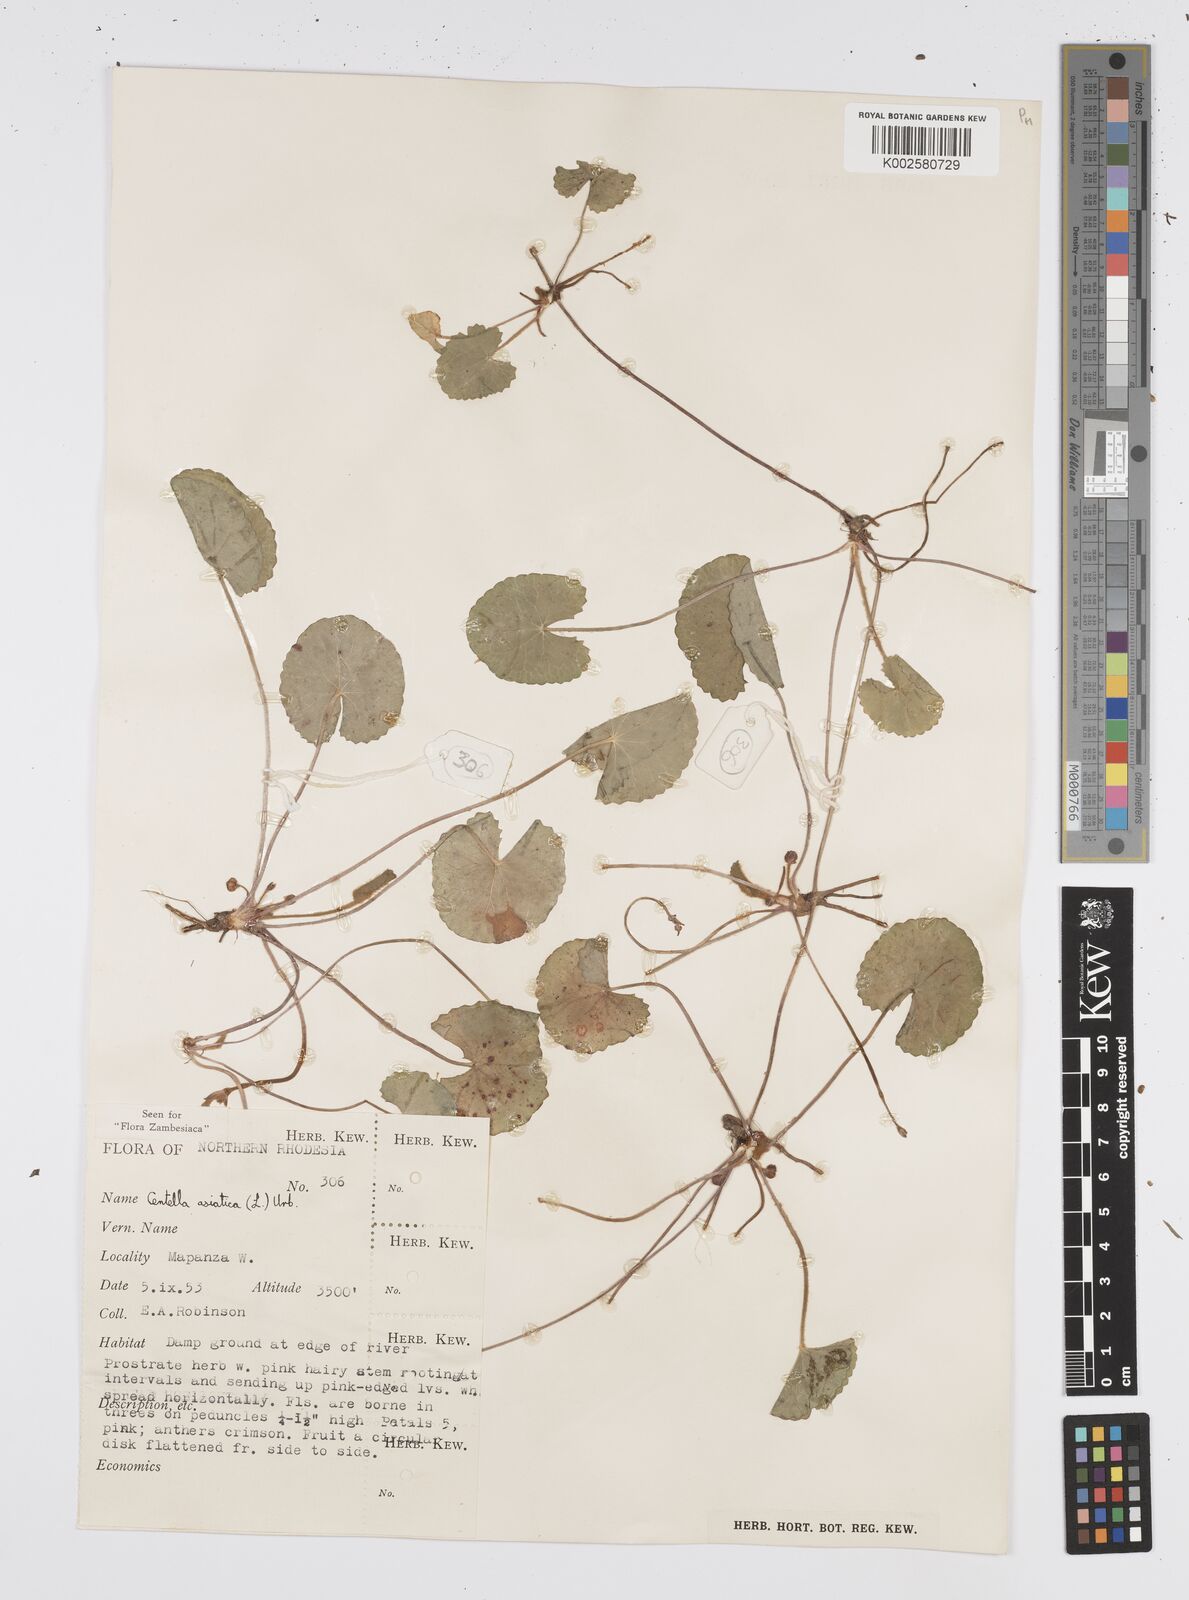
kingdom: Plantae
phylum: Tracheophyta
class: Magnoliopsida
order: Apiales
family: Apiaceae
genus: Centella
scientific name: Centella asiatica
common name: Spadeleaf
